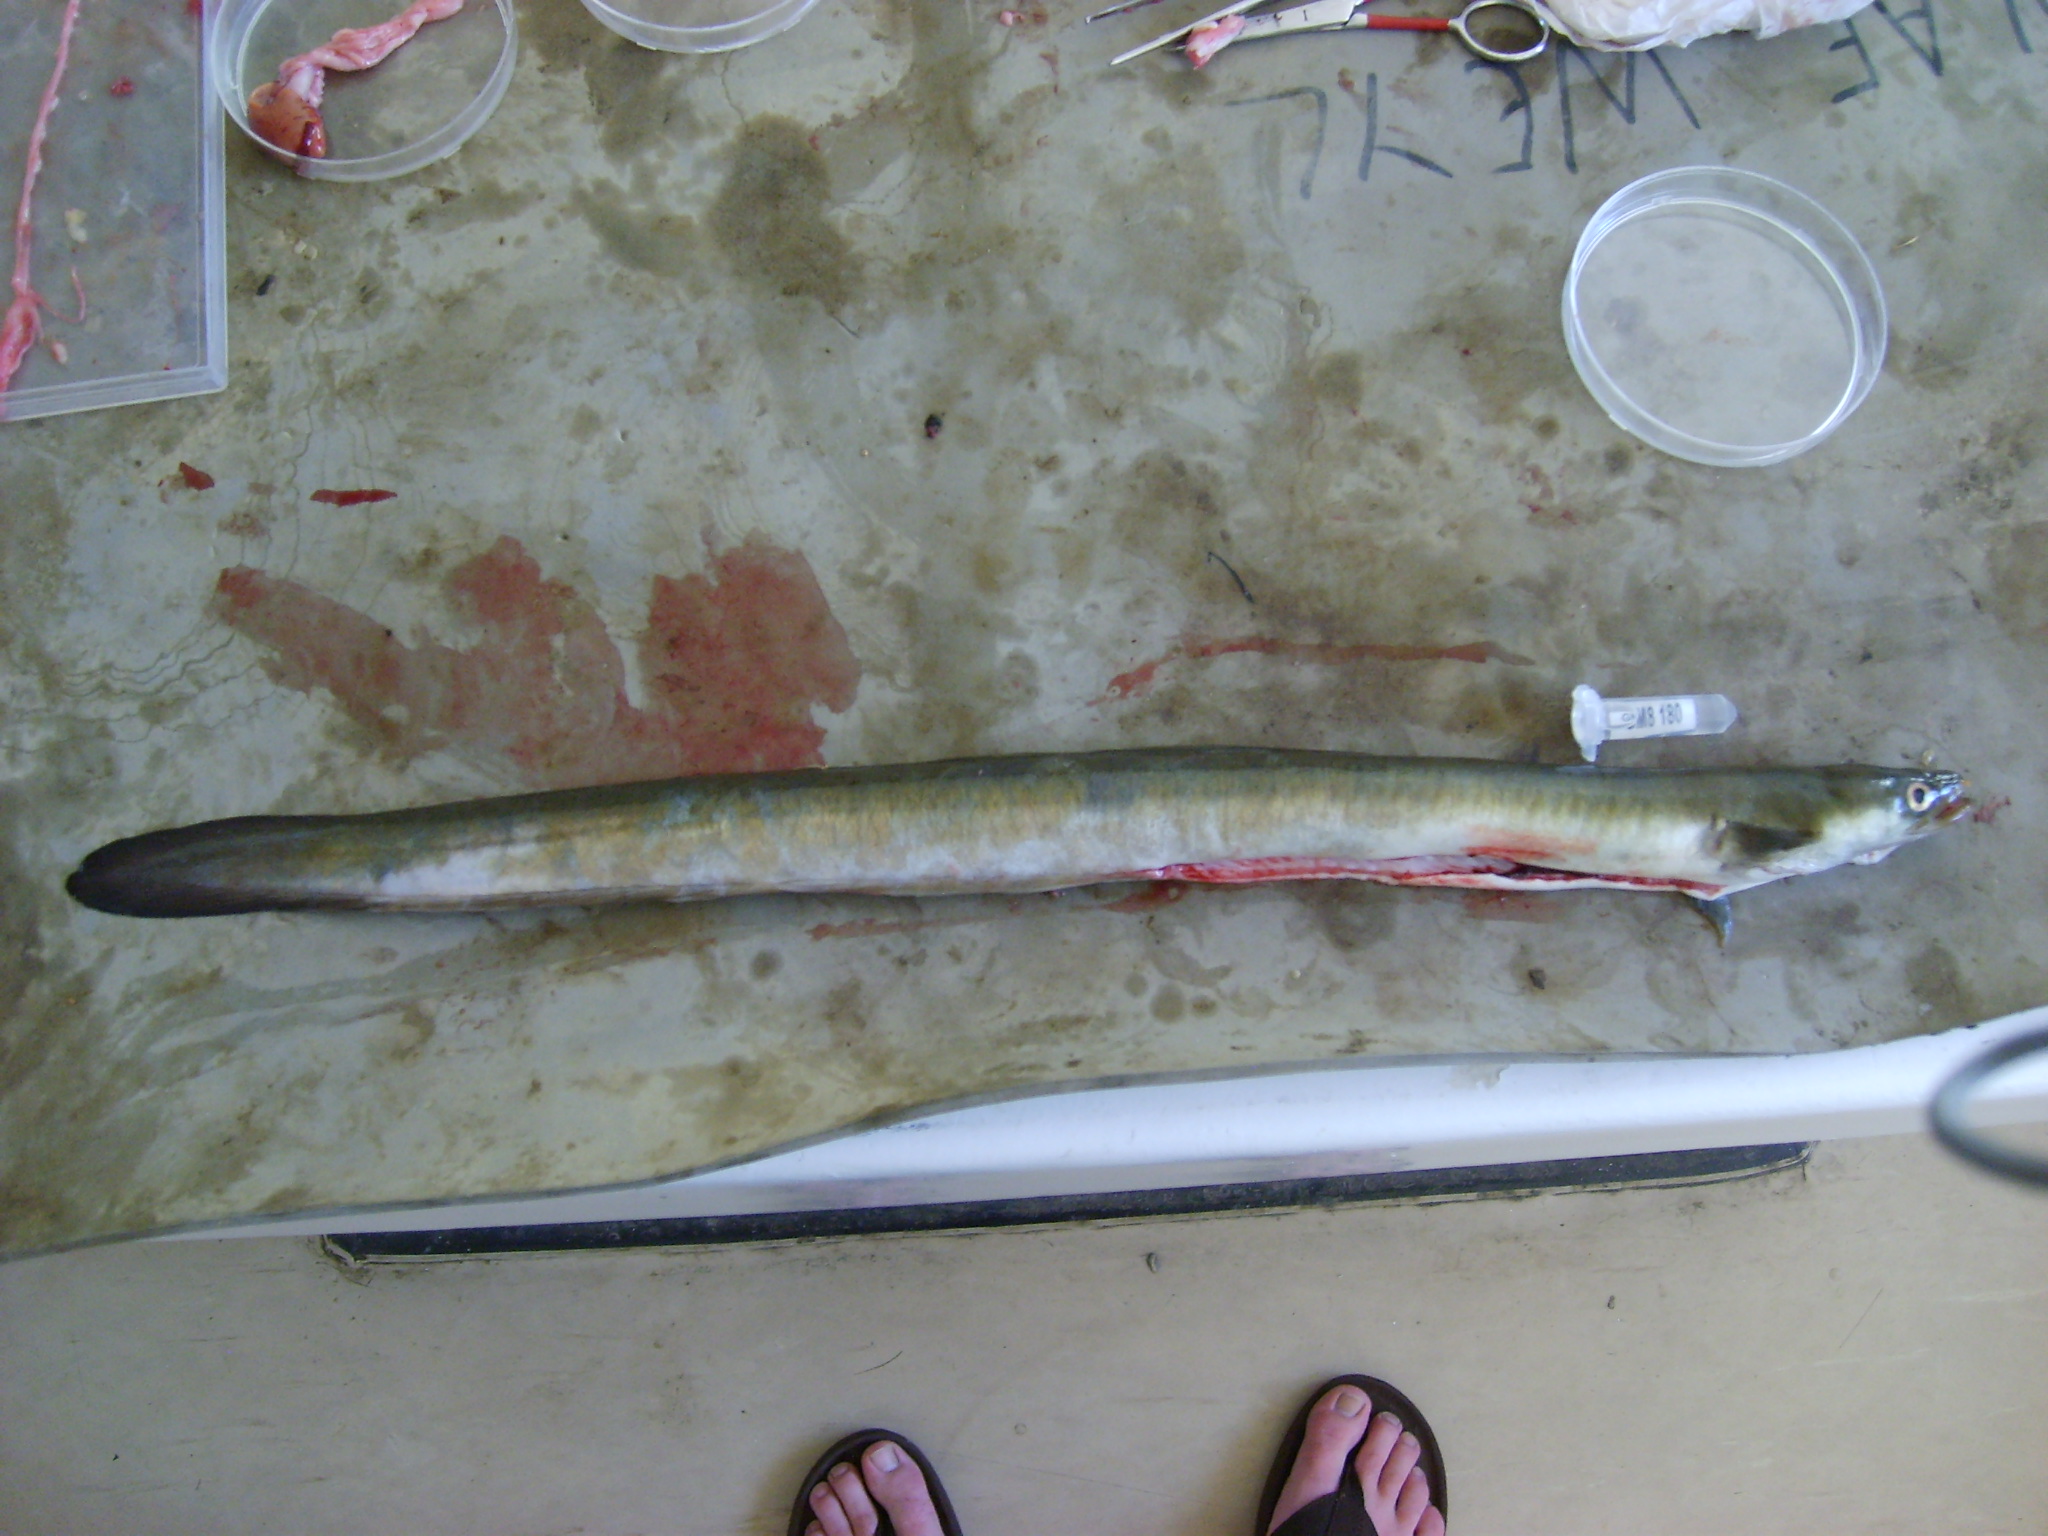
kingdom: Animalia
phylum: Chordata
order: Anguilliformes
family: Anguillidae
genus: Anguilla
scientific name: Anguilla mossambica
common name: African longfin eel
